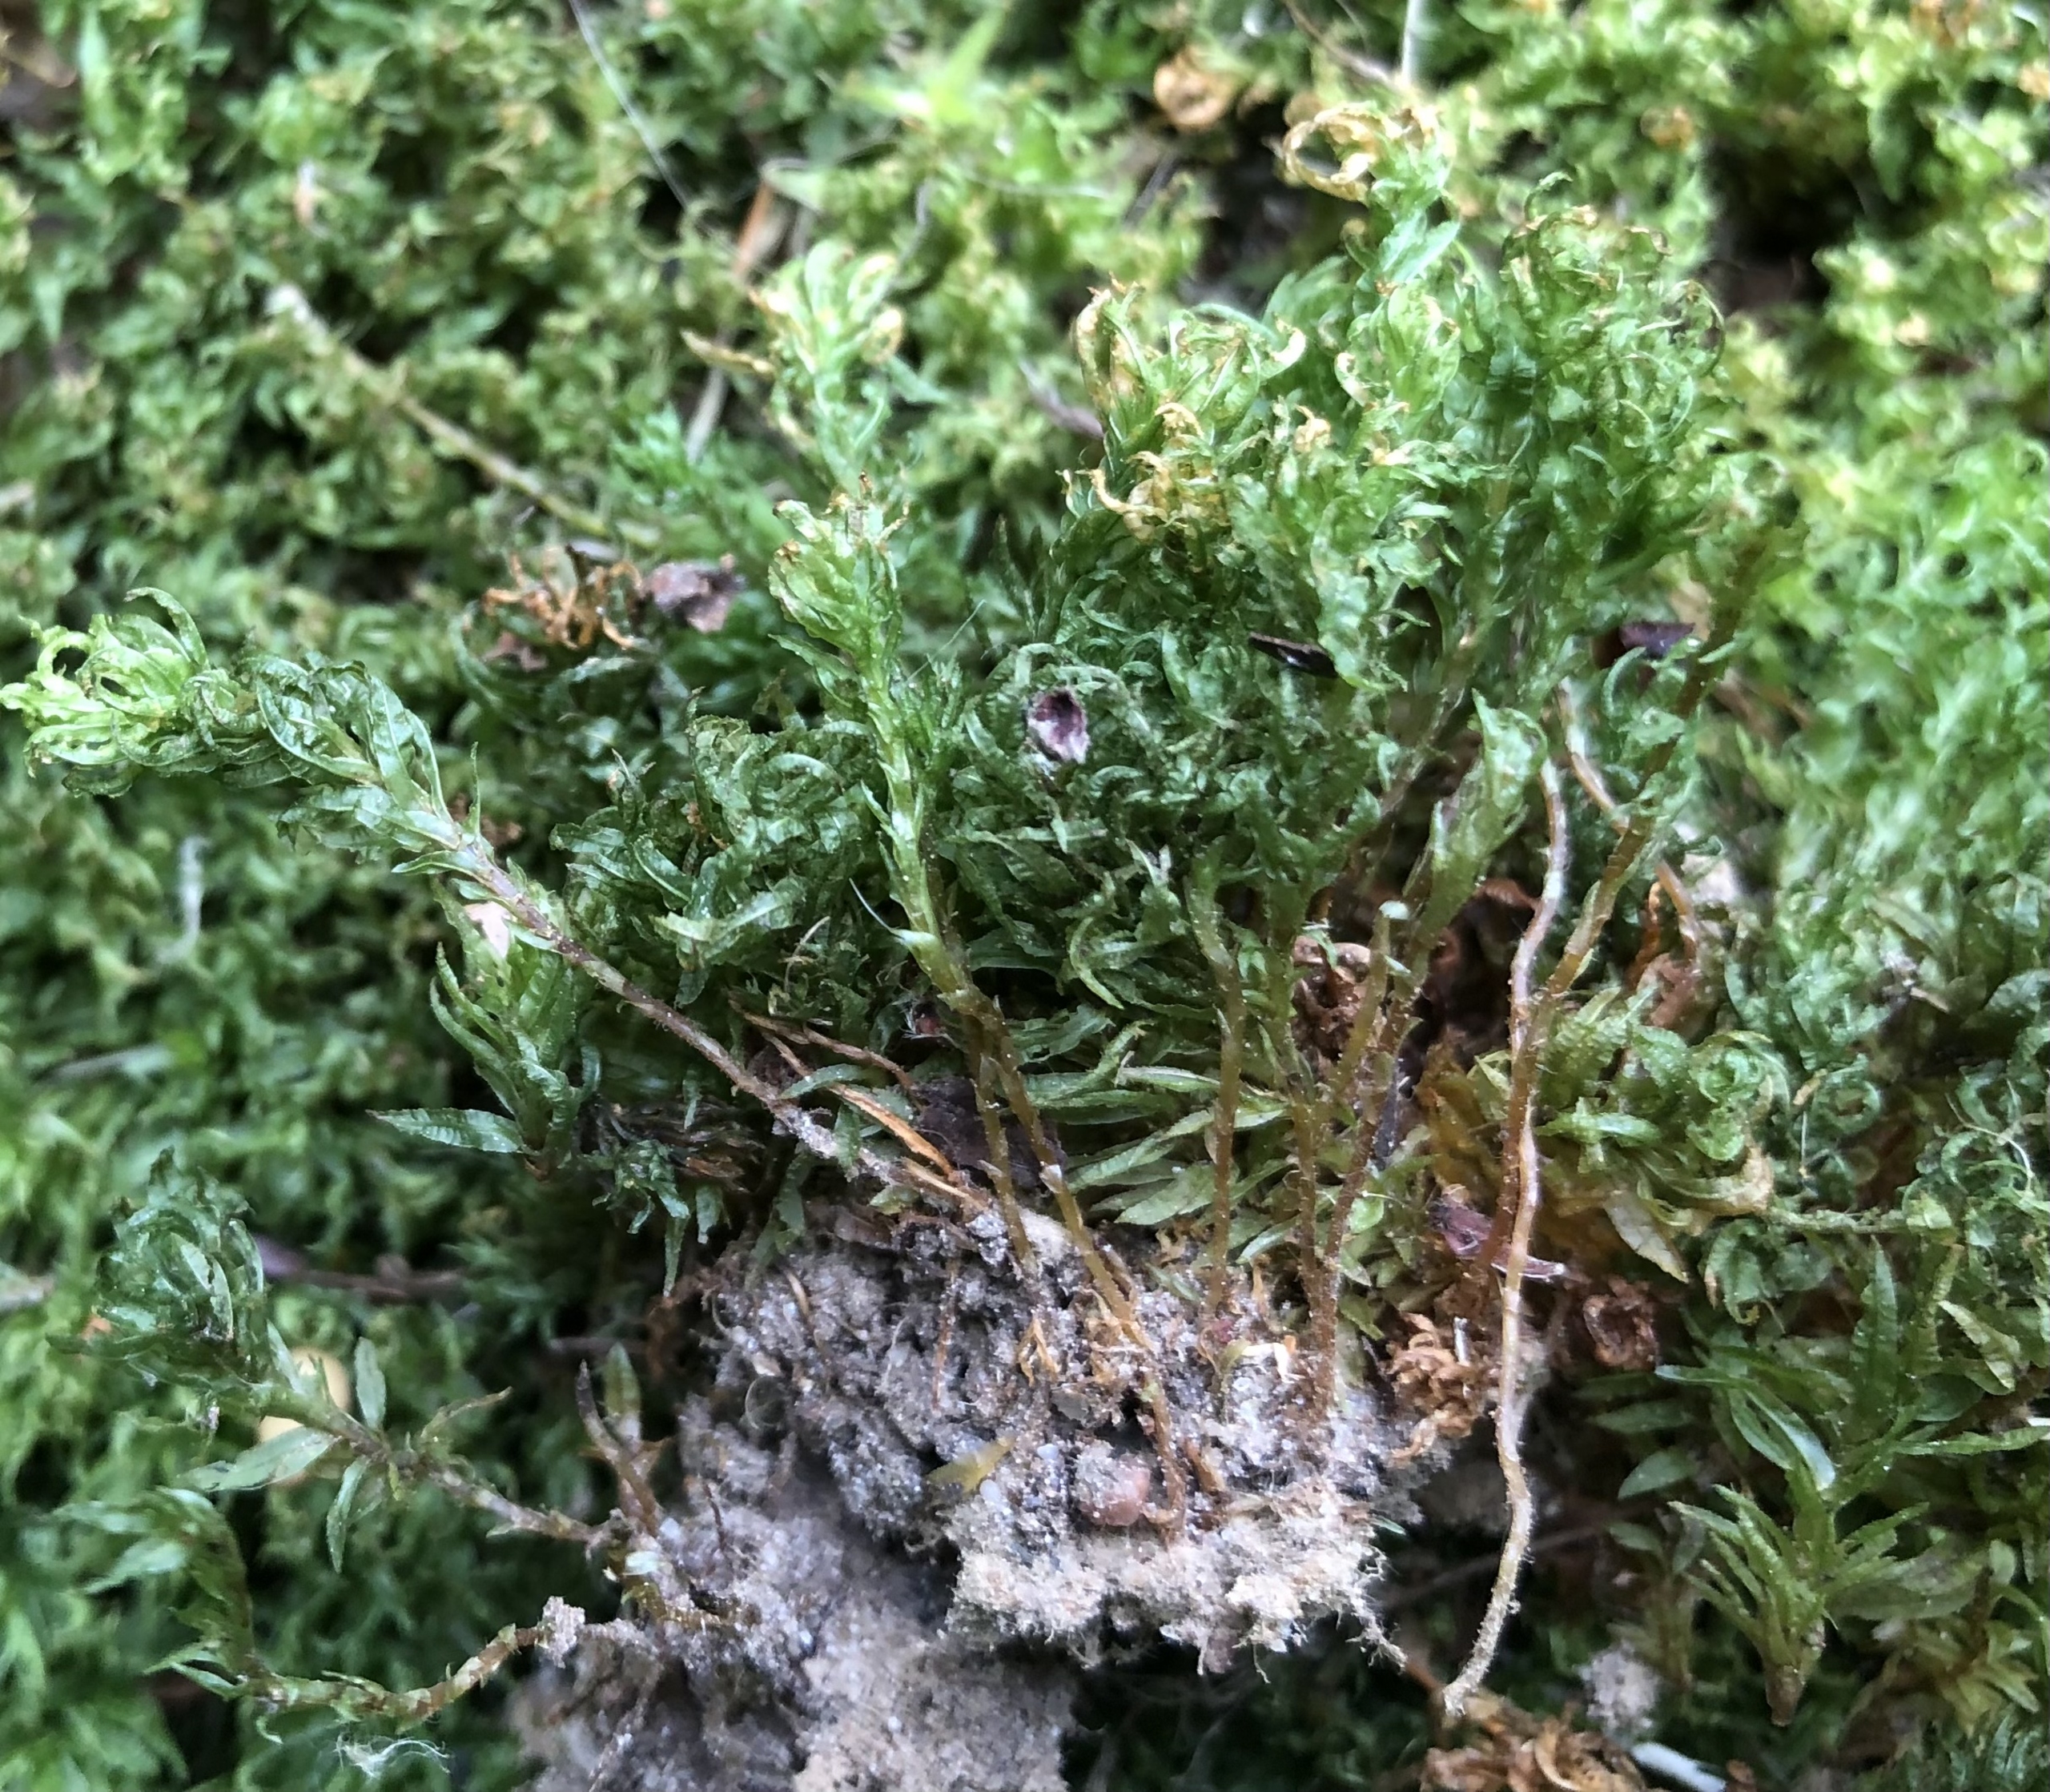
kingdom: Plantae
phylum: Bryophyta
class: Polytrichopsida
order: Polytrichales
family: Polytrichaceae
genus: Atrichum
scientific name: Atrichum undulatum
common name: Bølget katrinemos
